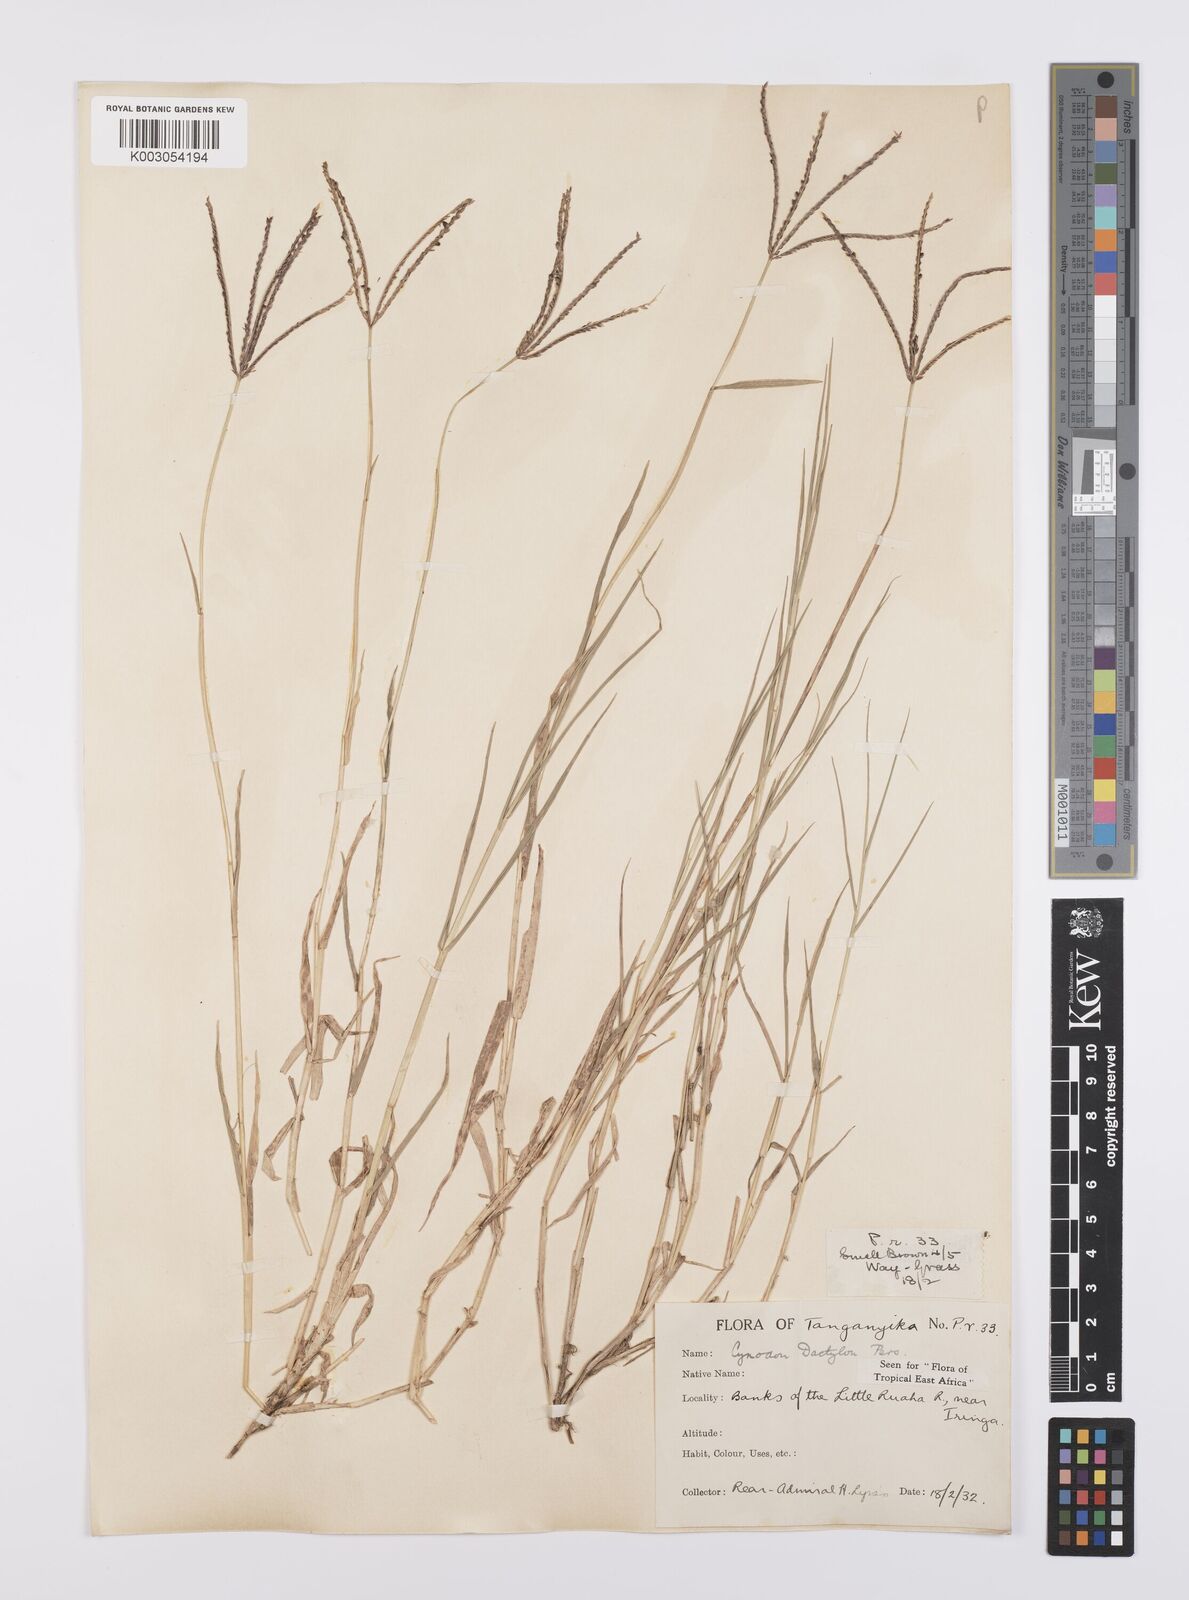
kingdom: Plantae
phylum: Tracheophyta
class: Liliopsida
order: Poales
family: Poaceae
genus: Cynodon
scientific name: Cynodon dactylon
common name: Bermuda grass
